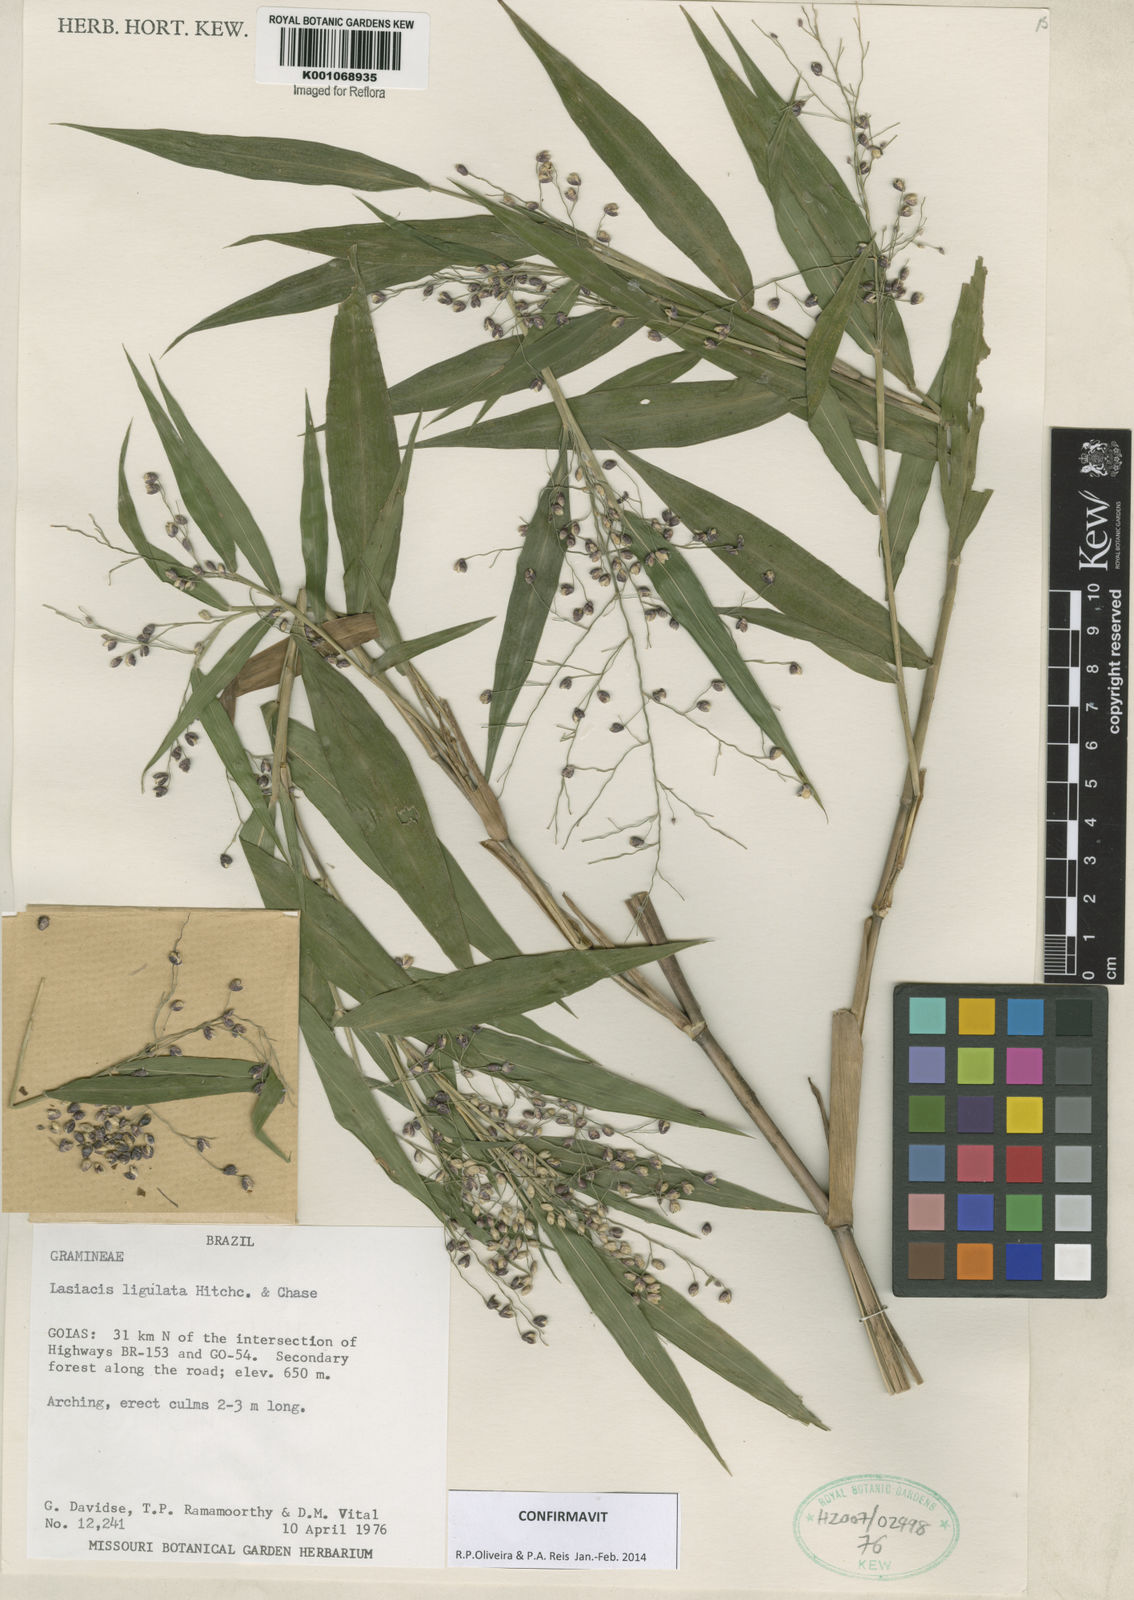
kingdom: Plantae
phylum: Tracheophyta
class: Liliopsida
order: Poales
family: Poaceae
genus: Lasiacis
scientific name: Lasiacis ligulata
